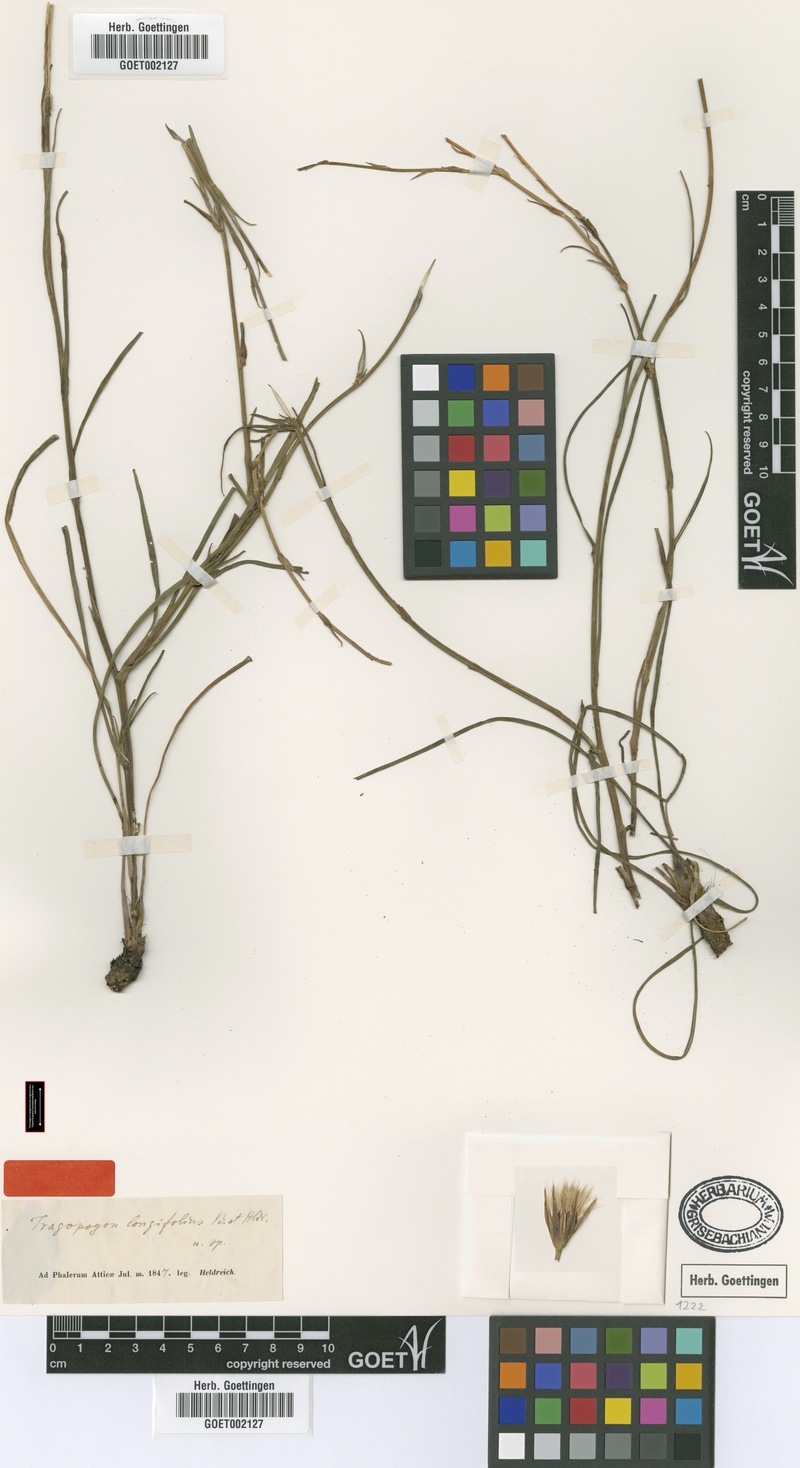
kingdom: Plantae
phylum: Tracheophyta
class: Magnoliopsida
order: Asterales
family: Asteraceae
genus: Tragopogon
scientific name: Tragopogon longifolius
